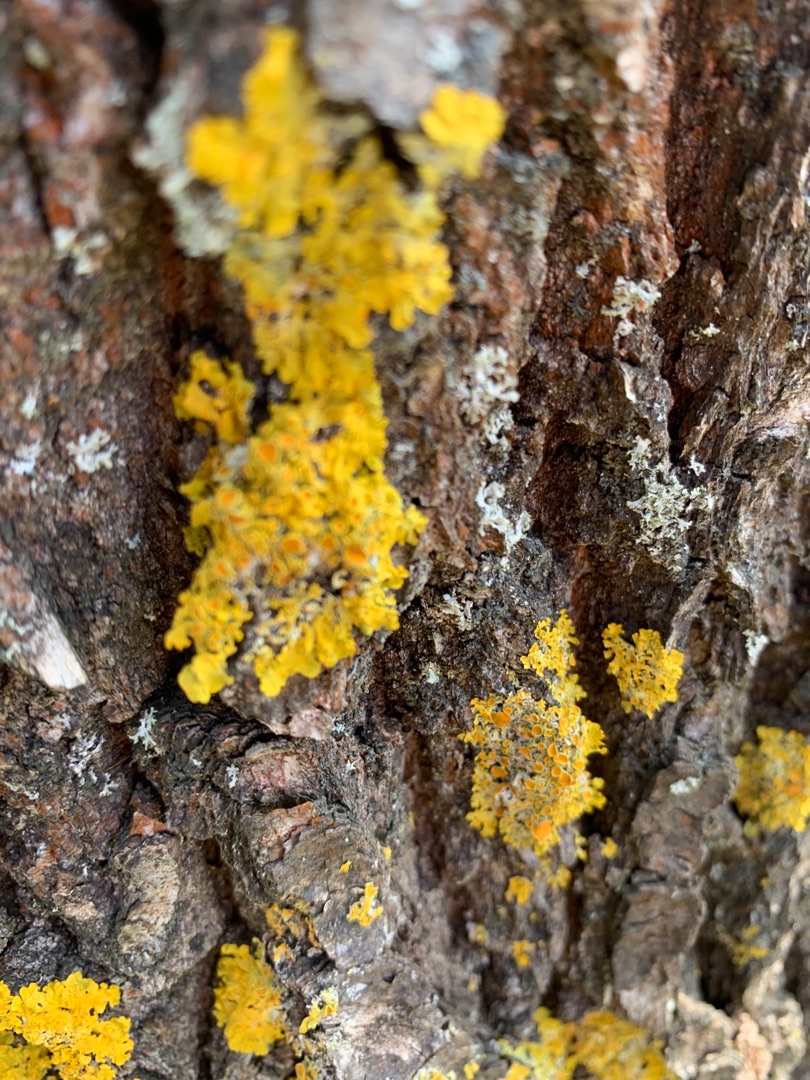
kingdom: Fungi
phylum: Ascomycota
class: Lecanoromycetes
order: Teloschistales
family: Teloschistaceae
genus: Xanthoria
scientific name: Xanthoria parietina
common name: Almindelig væggelav
